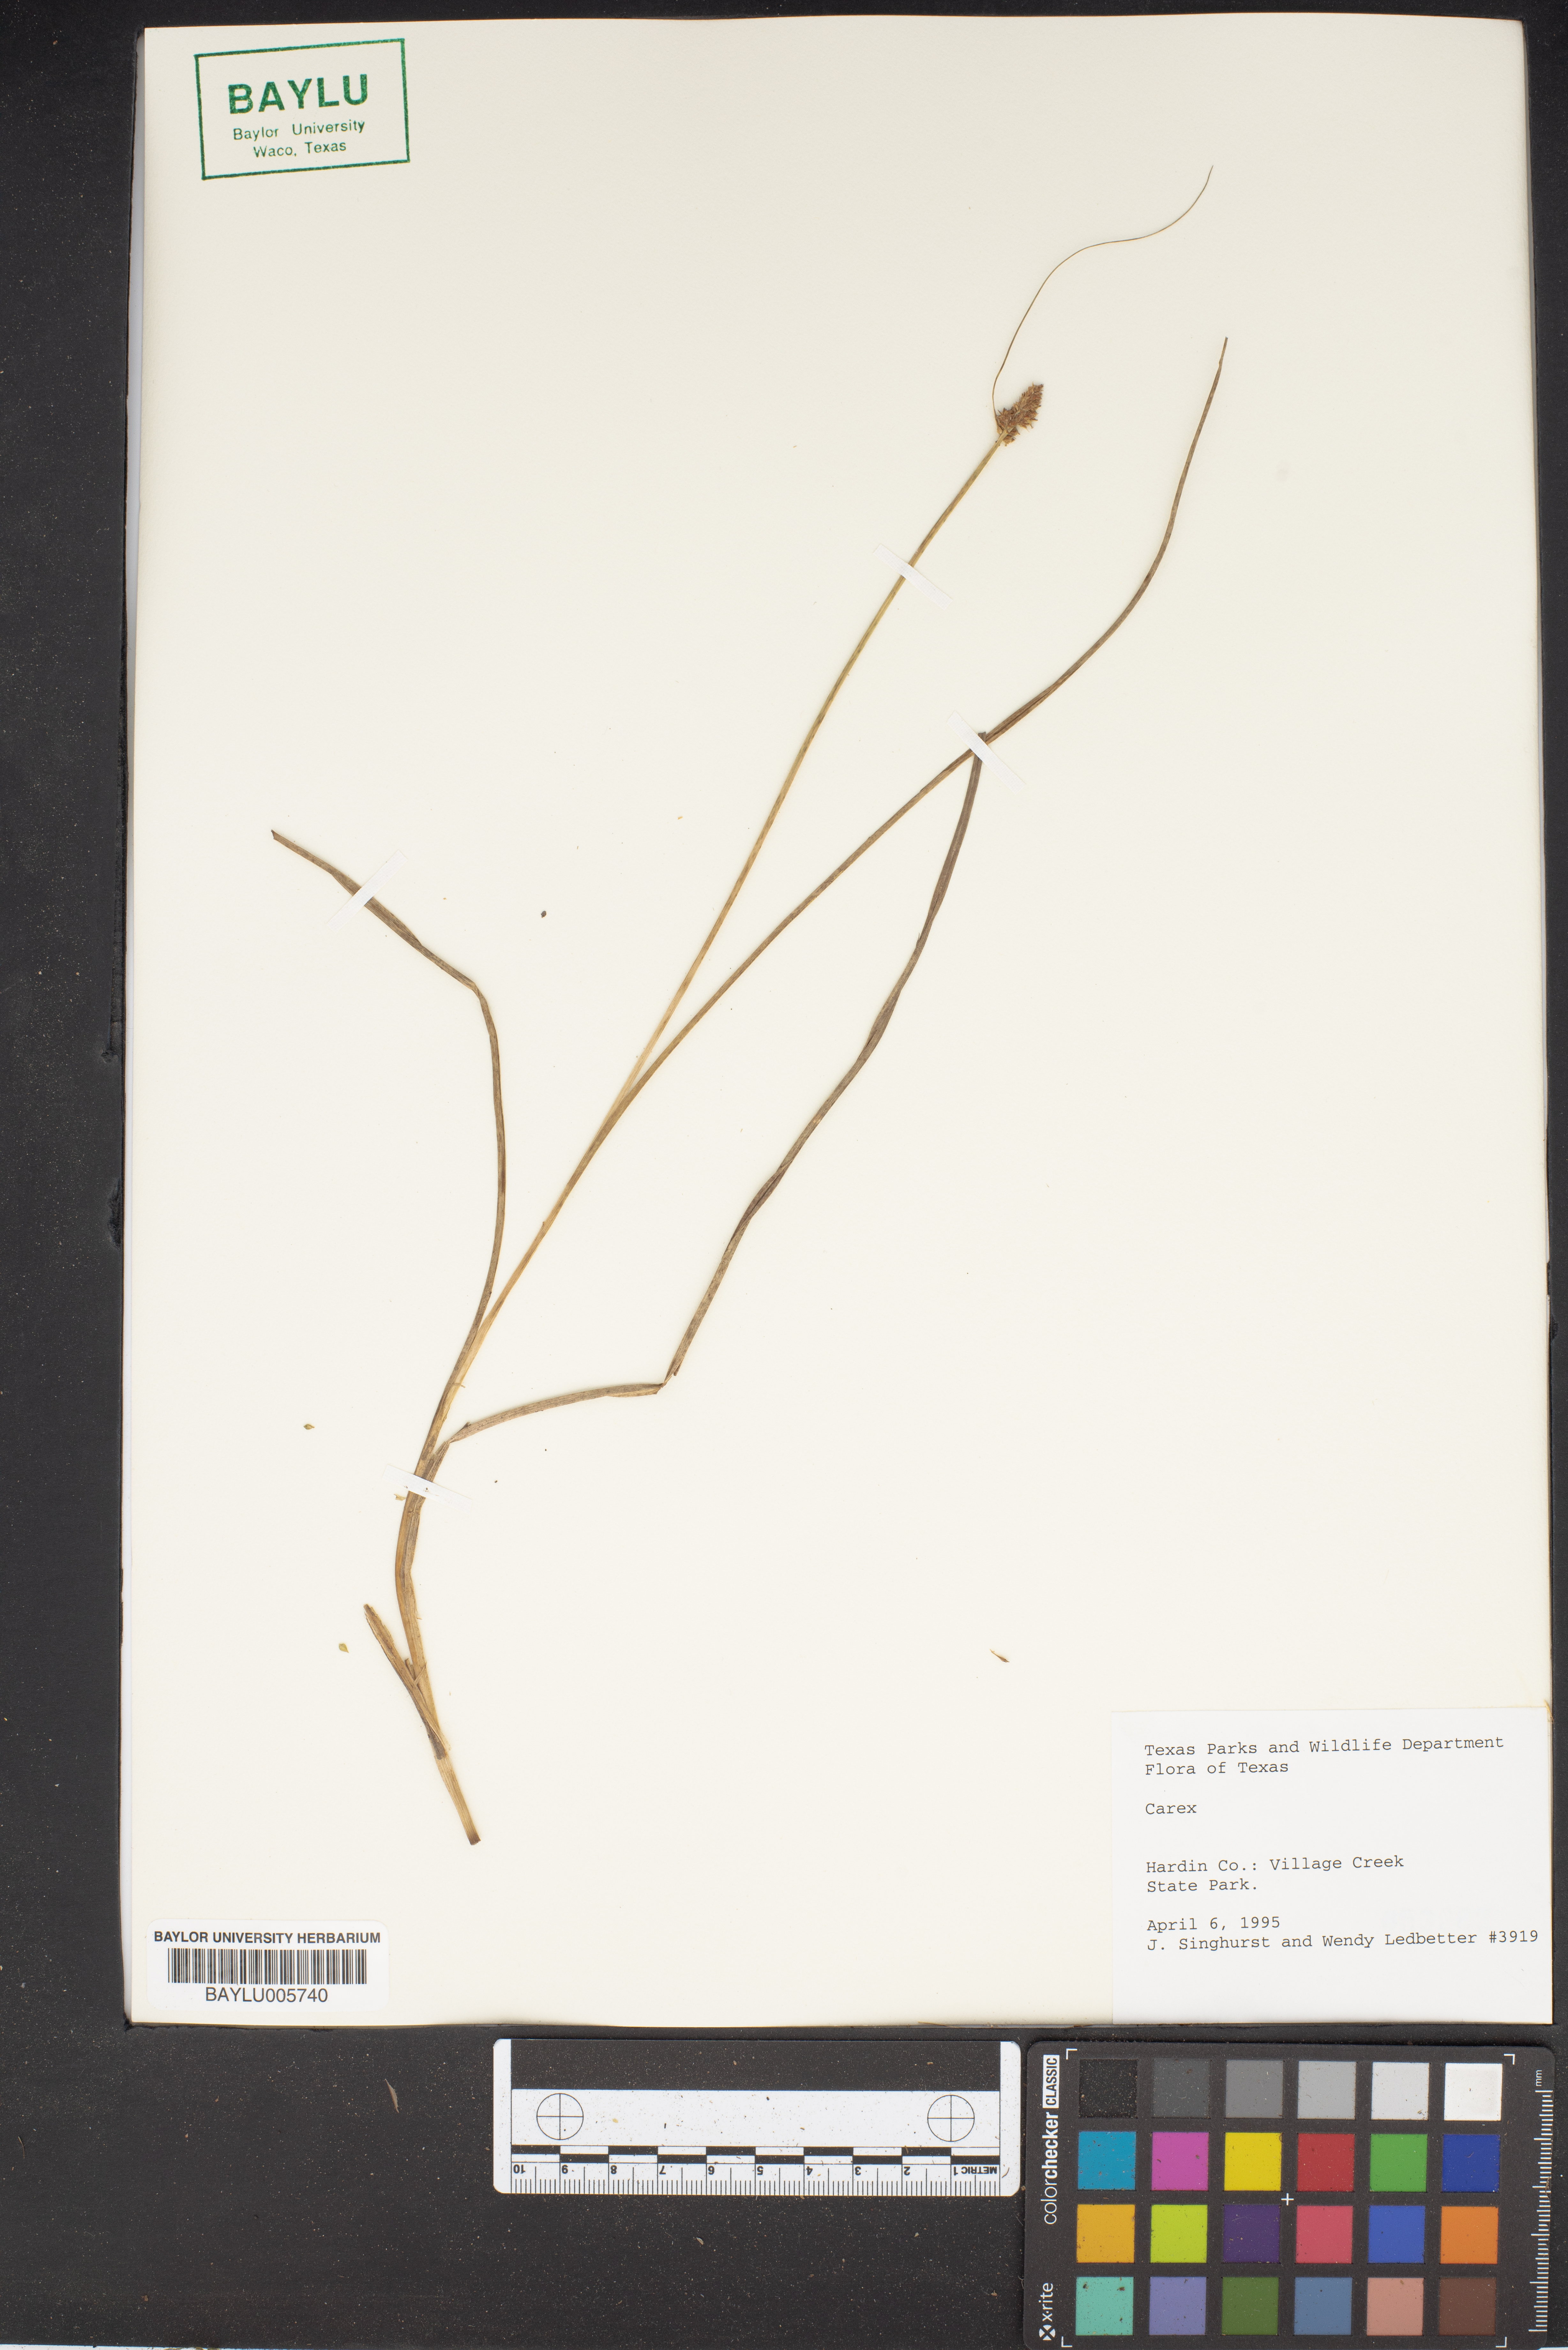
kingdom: Plantae
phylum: Tracheophyta
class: Liliopsida
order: Poales
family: Cyperaceae
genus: Carex
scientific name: Carex
